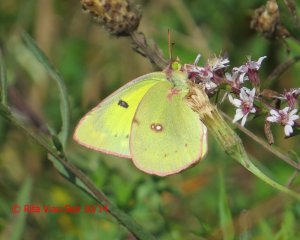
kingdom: Animalia
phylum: Arthropoda
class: Insecta
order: Lepidoptera
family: Pieridae
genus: Colias
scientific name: Colias philodice
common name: Clouded Sulphur
